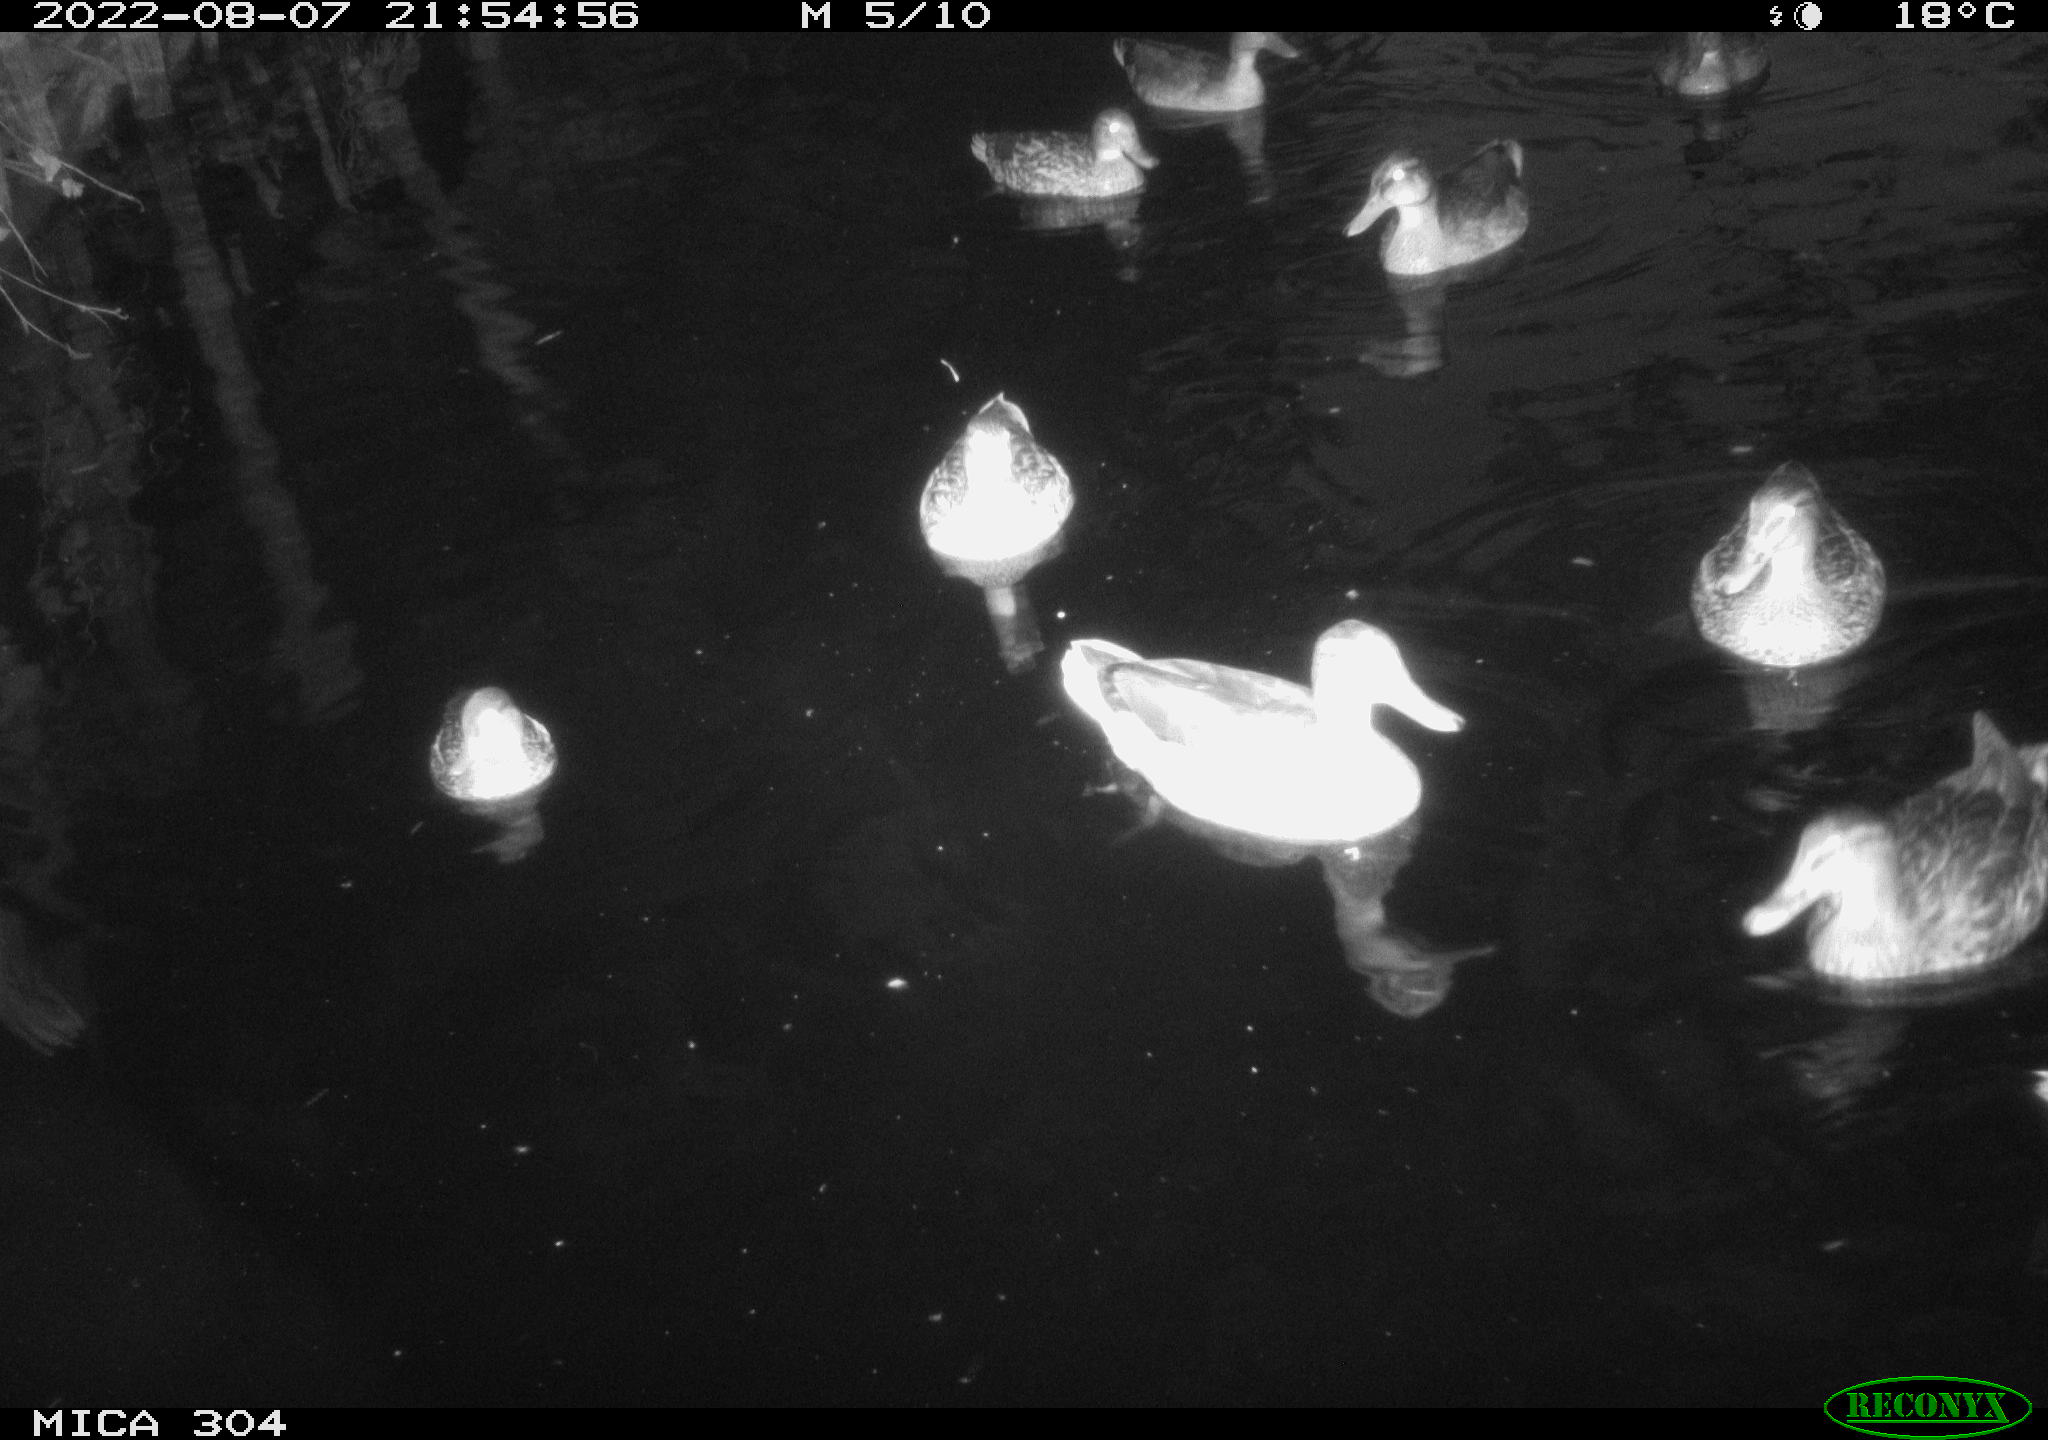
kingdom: Animalia
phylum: Chordata
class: Aves
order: Anseriformes
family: Anatidae
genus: Anas
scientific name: Anas platyrhynchos
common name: Mallard
